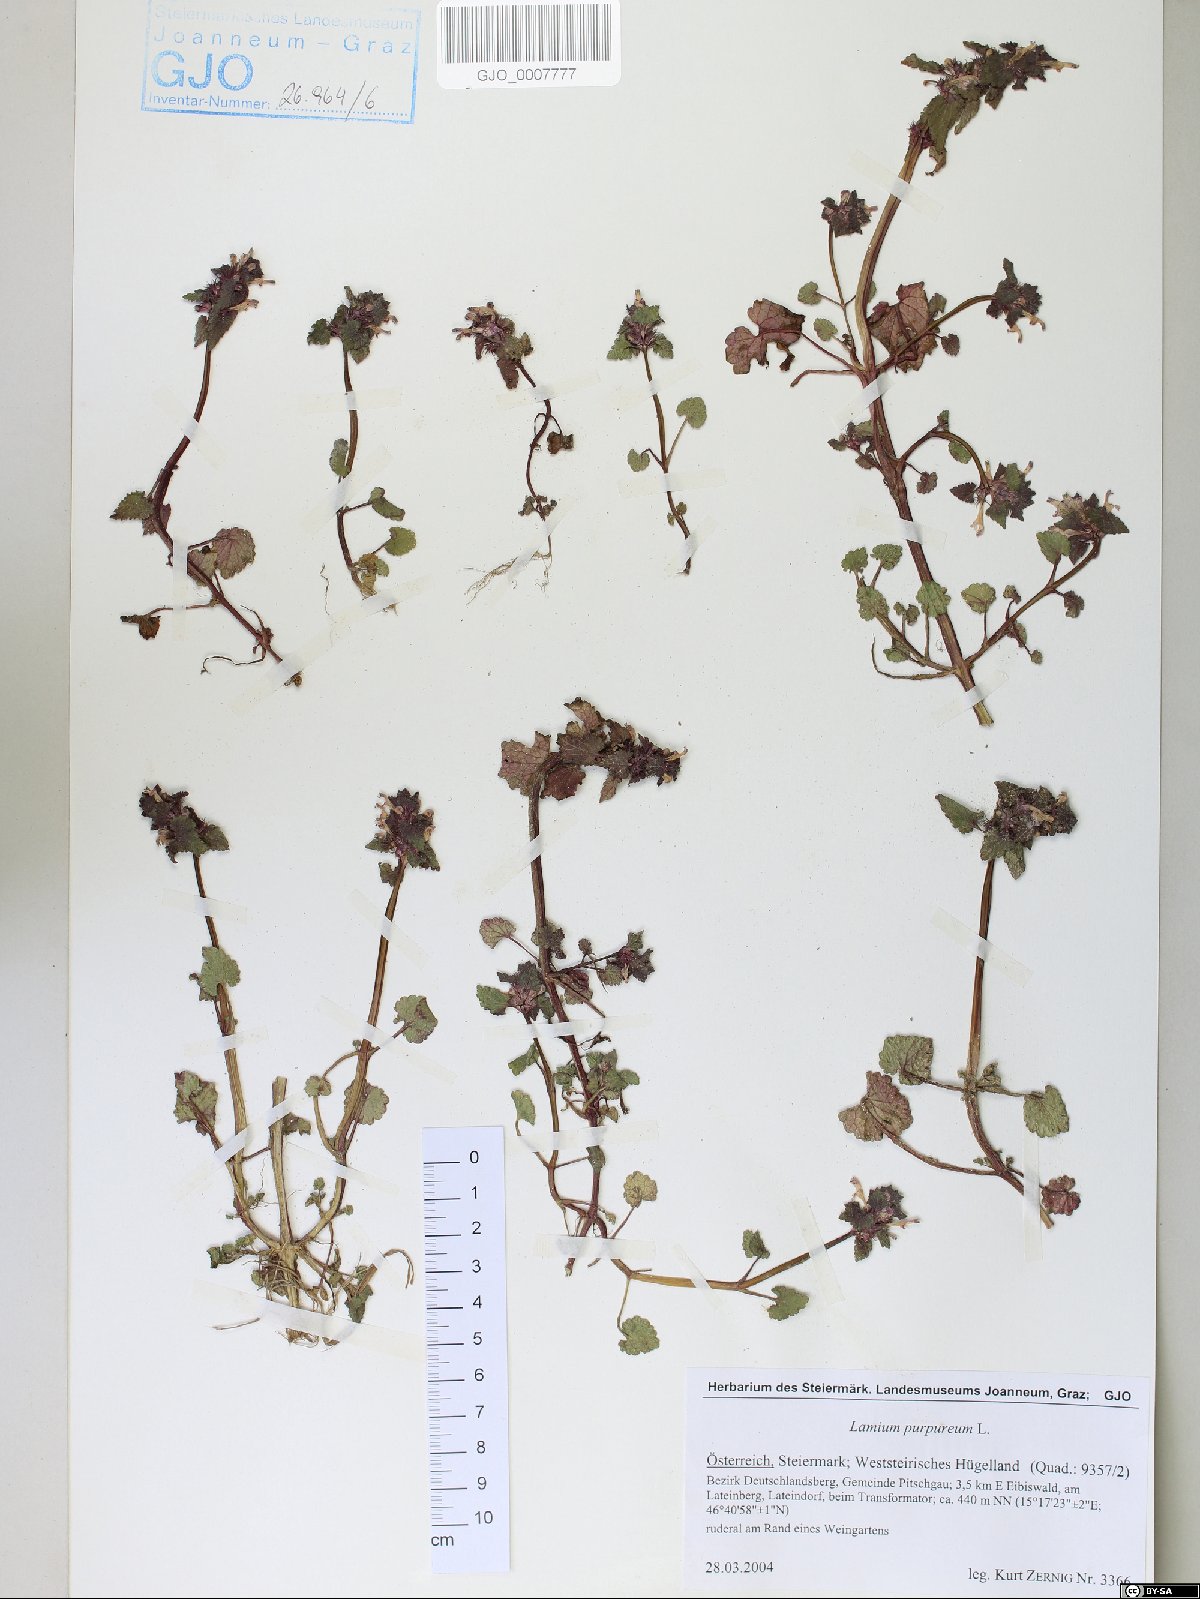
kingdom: Plantae
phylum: Tracheophyta
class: Magnoliopsida
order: Lamiales
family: Lamiaceae
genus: Lamium
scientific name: Lamium purpureum
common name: Red dead-nettle
